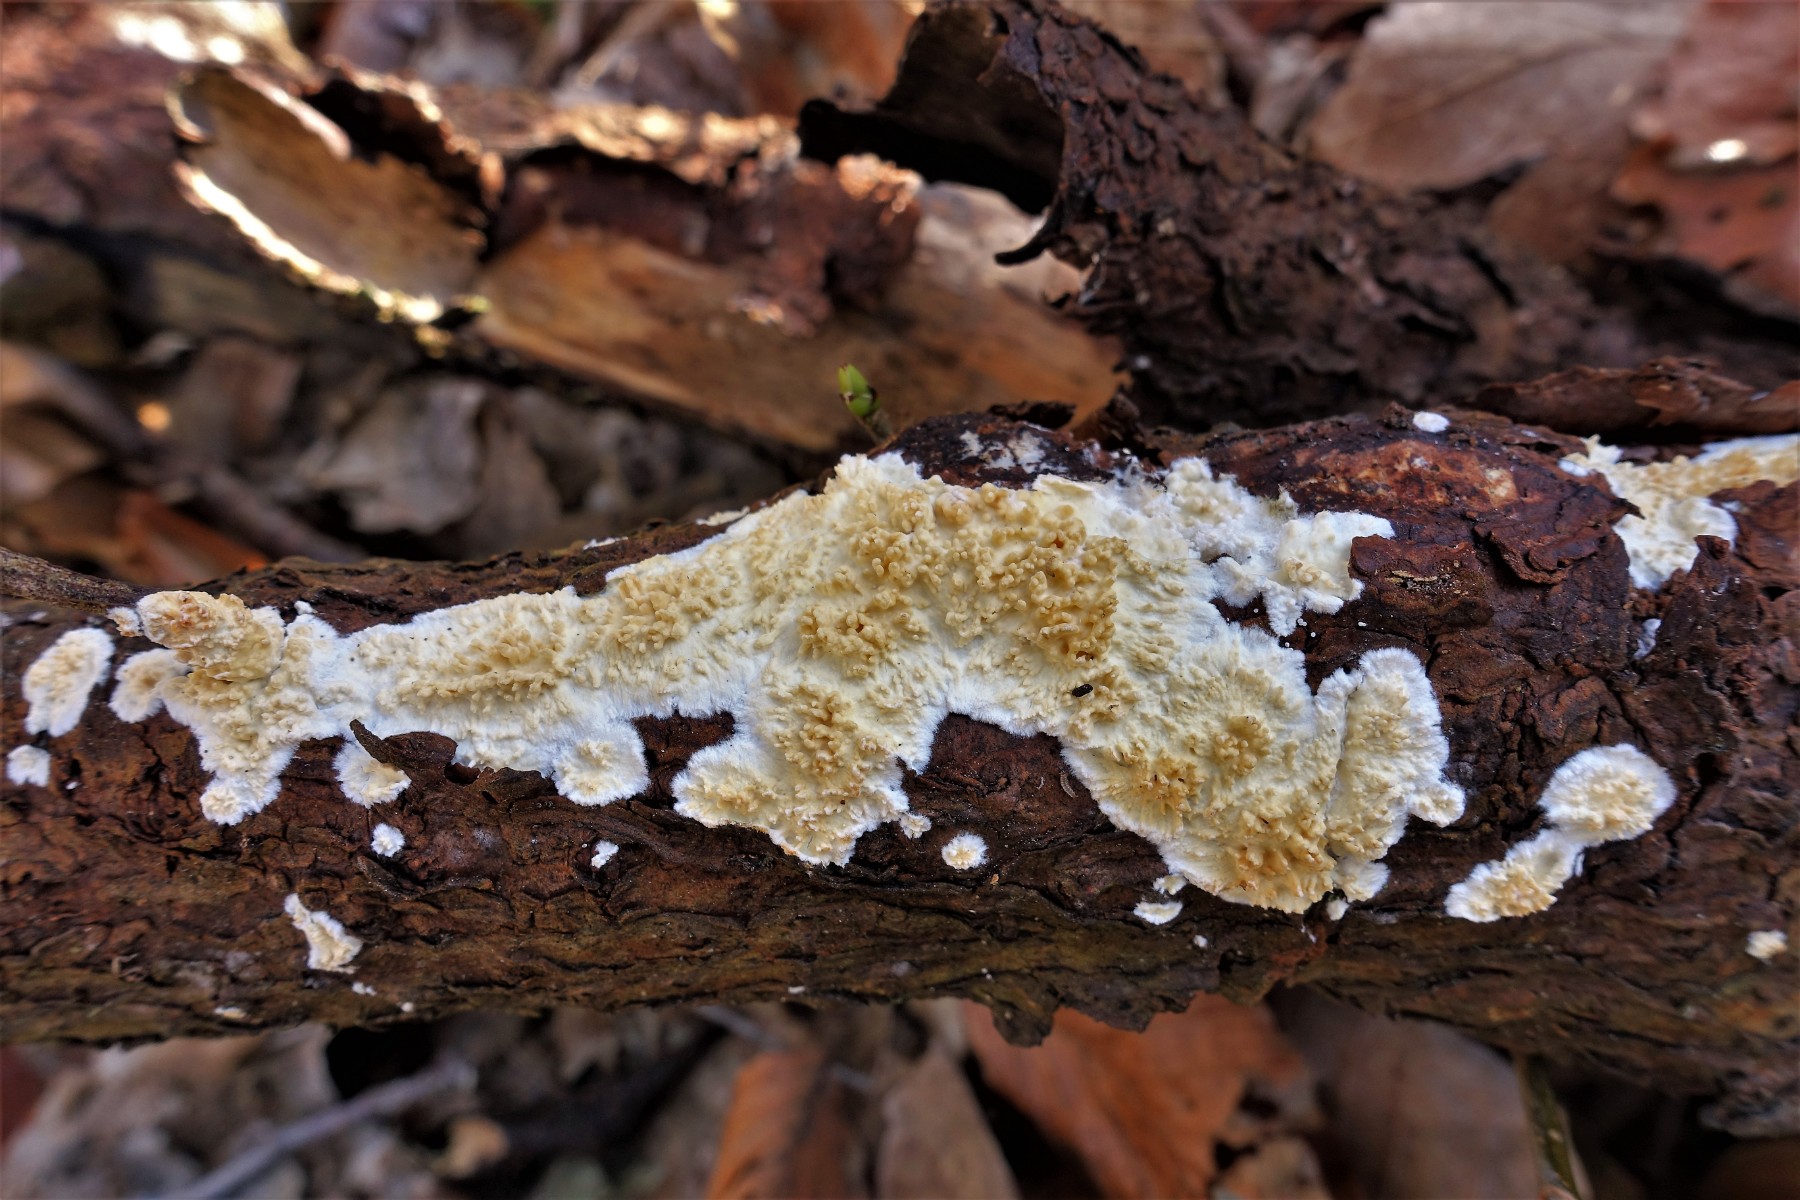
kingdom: Fungi
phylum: Basidiomycota
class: Agaricomycetes
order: Hymenochaetales
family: Schizoporaceae
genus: Xylodon
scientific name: Xylodon radula
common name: grovtandet kalkskind
